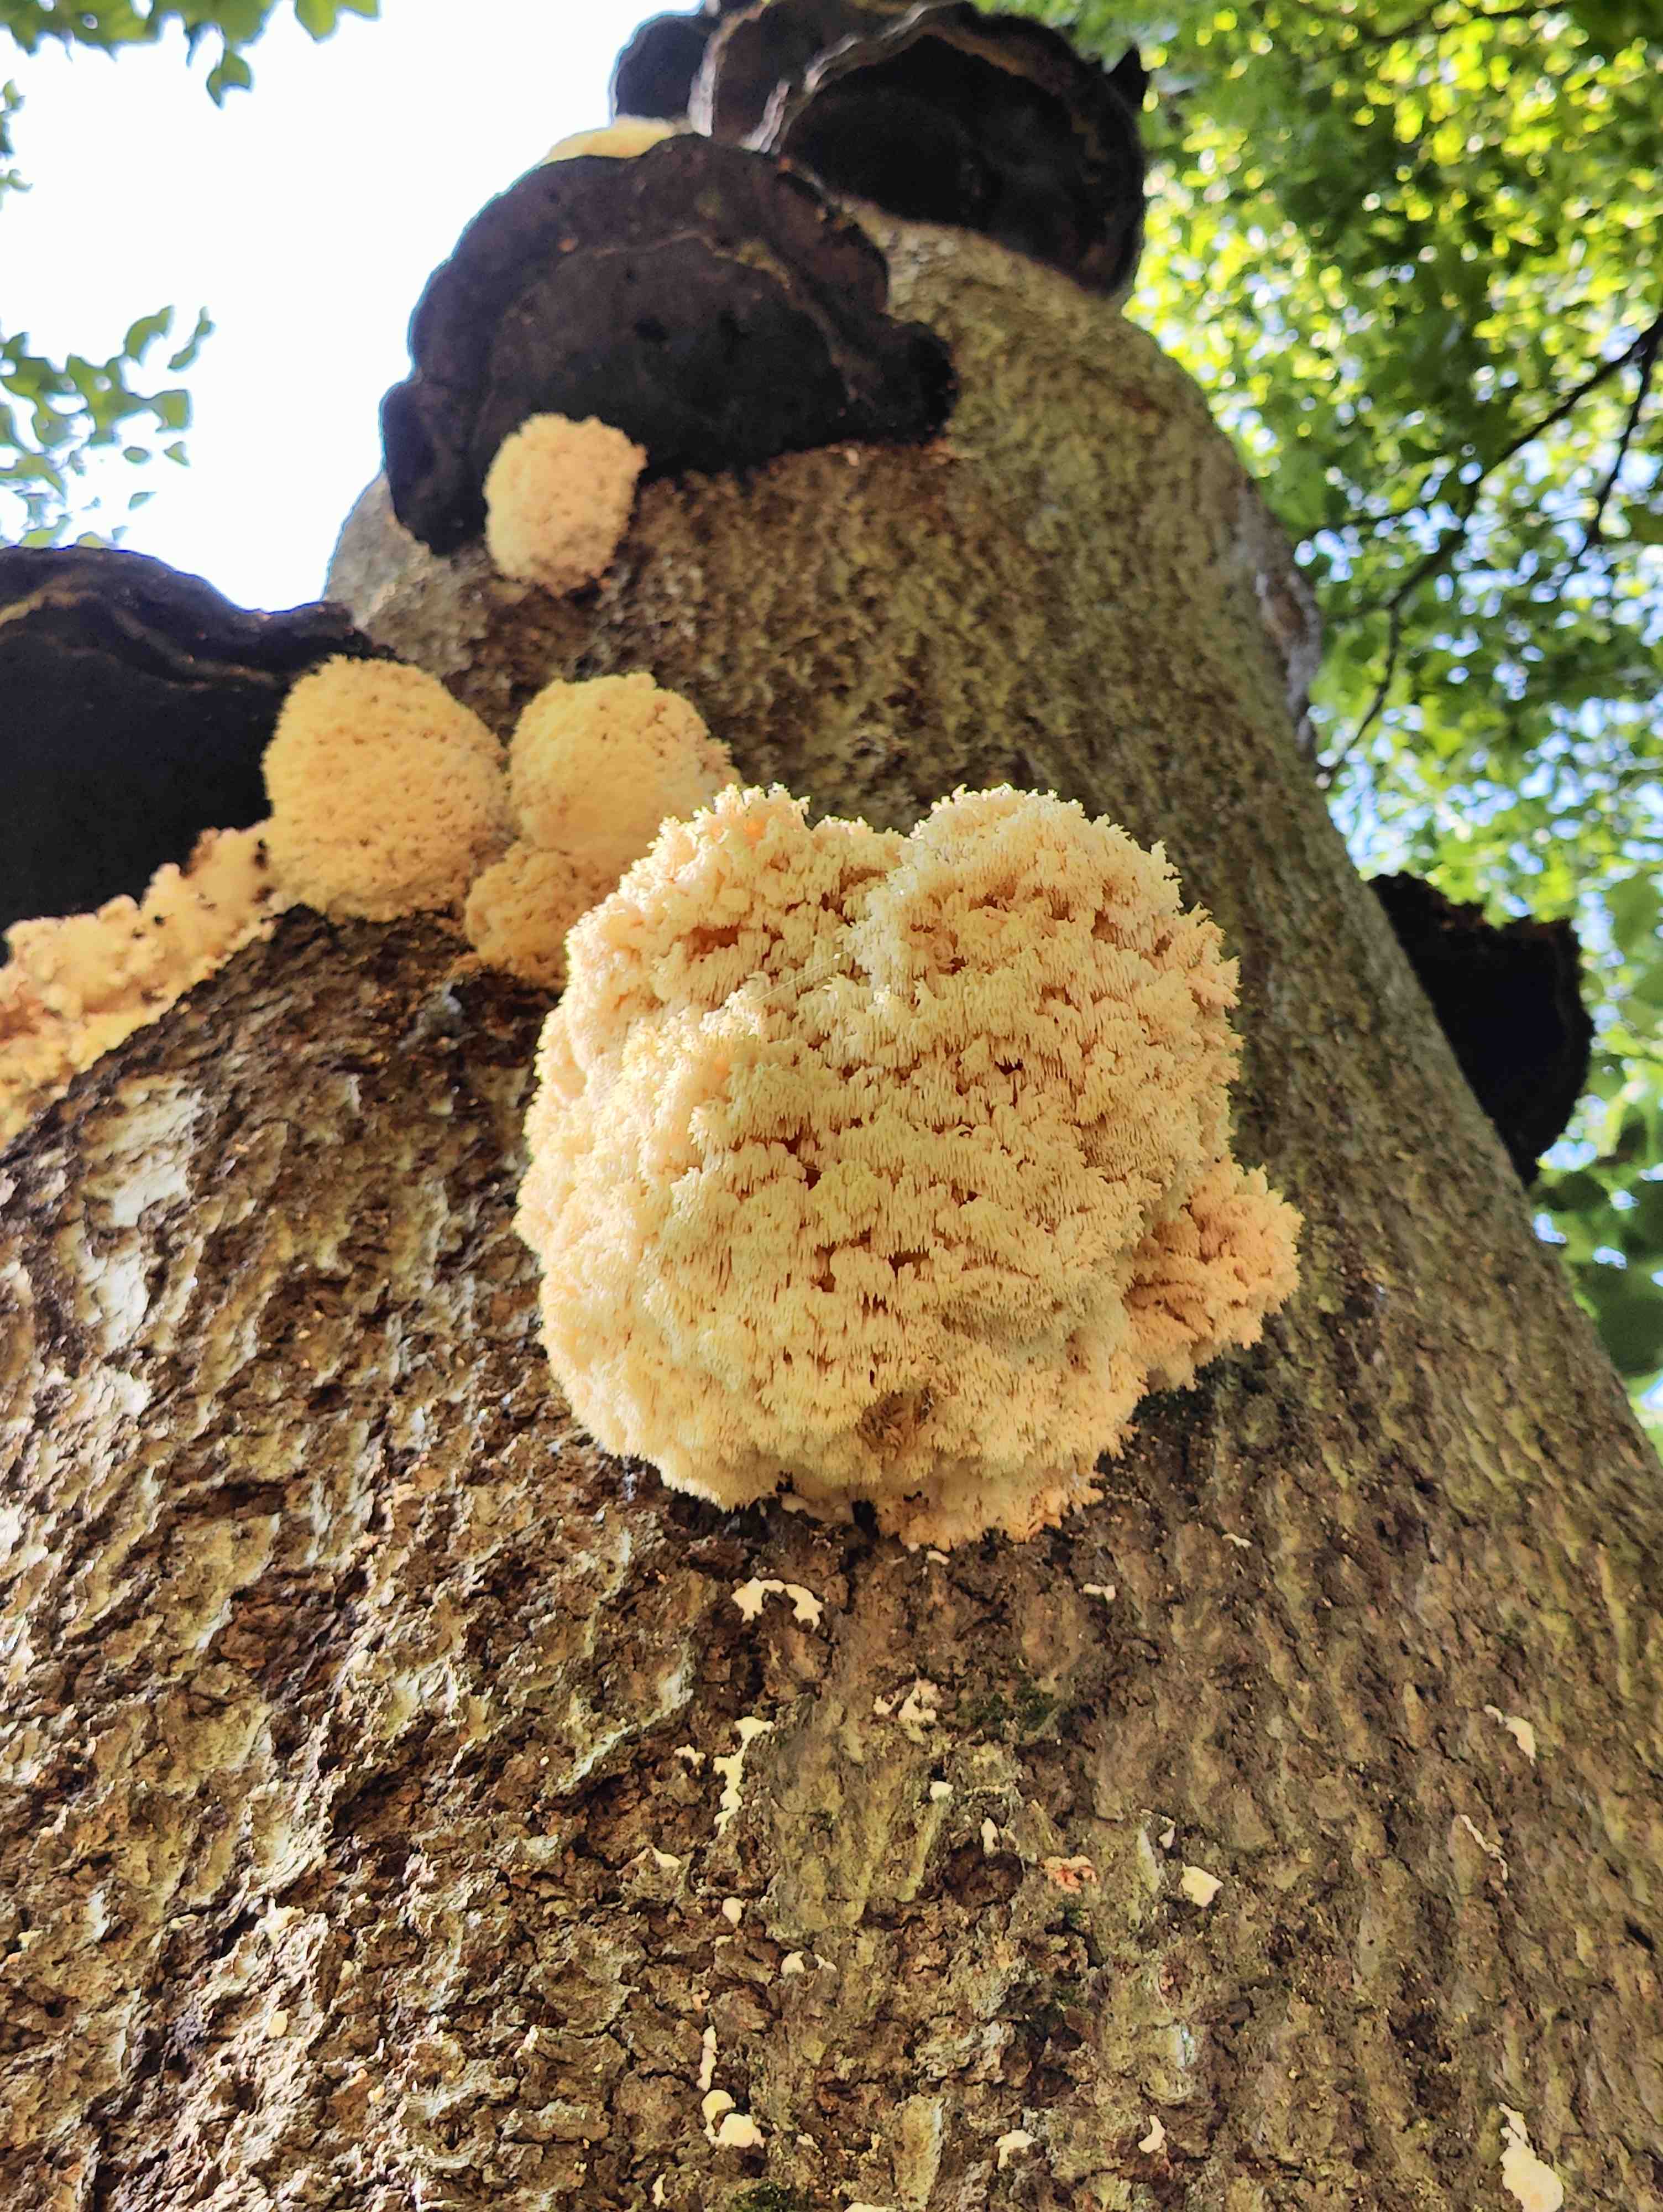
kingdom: Fungi
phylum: Basidiomycota
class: Agaricomycetes
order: Russulales
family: Hericiaceae
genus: Hericium
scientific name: Hericium coralloides
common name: koralpigsvamp
